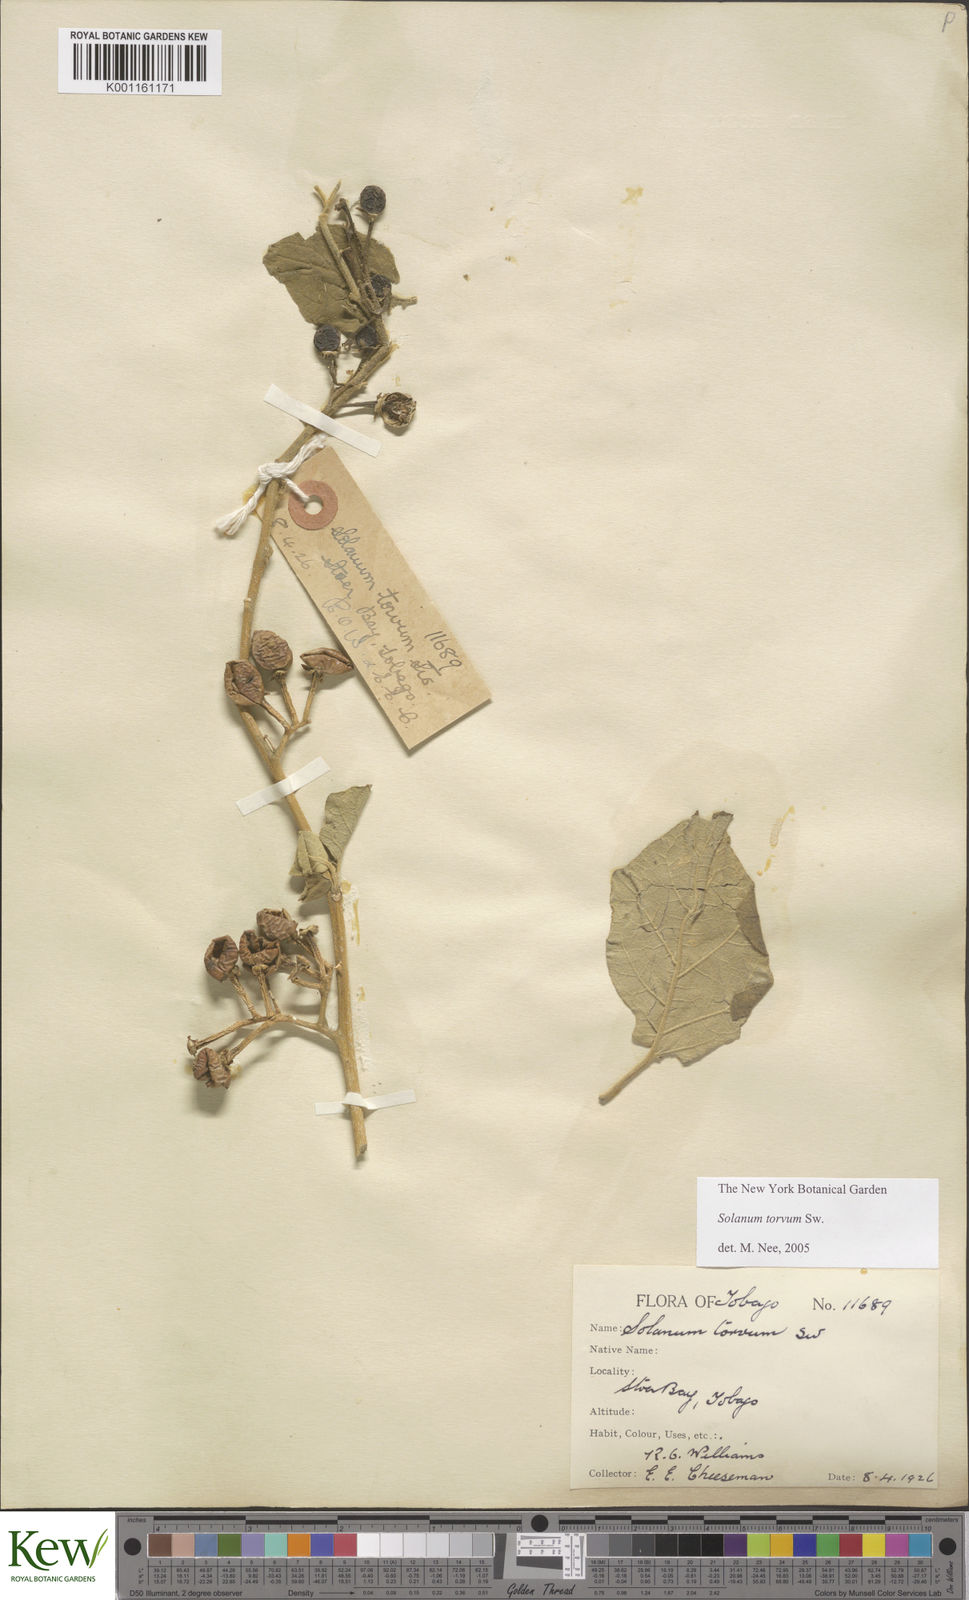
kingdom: Plantae
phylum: Tracheophyta
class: Magnoliopsida
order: Solanales
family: Solanaceae
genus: Solanum
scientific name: Solanum torvum
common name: Turkey berry
